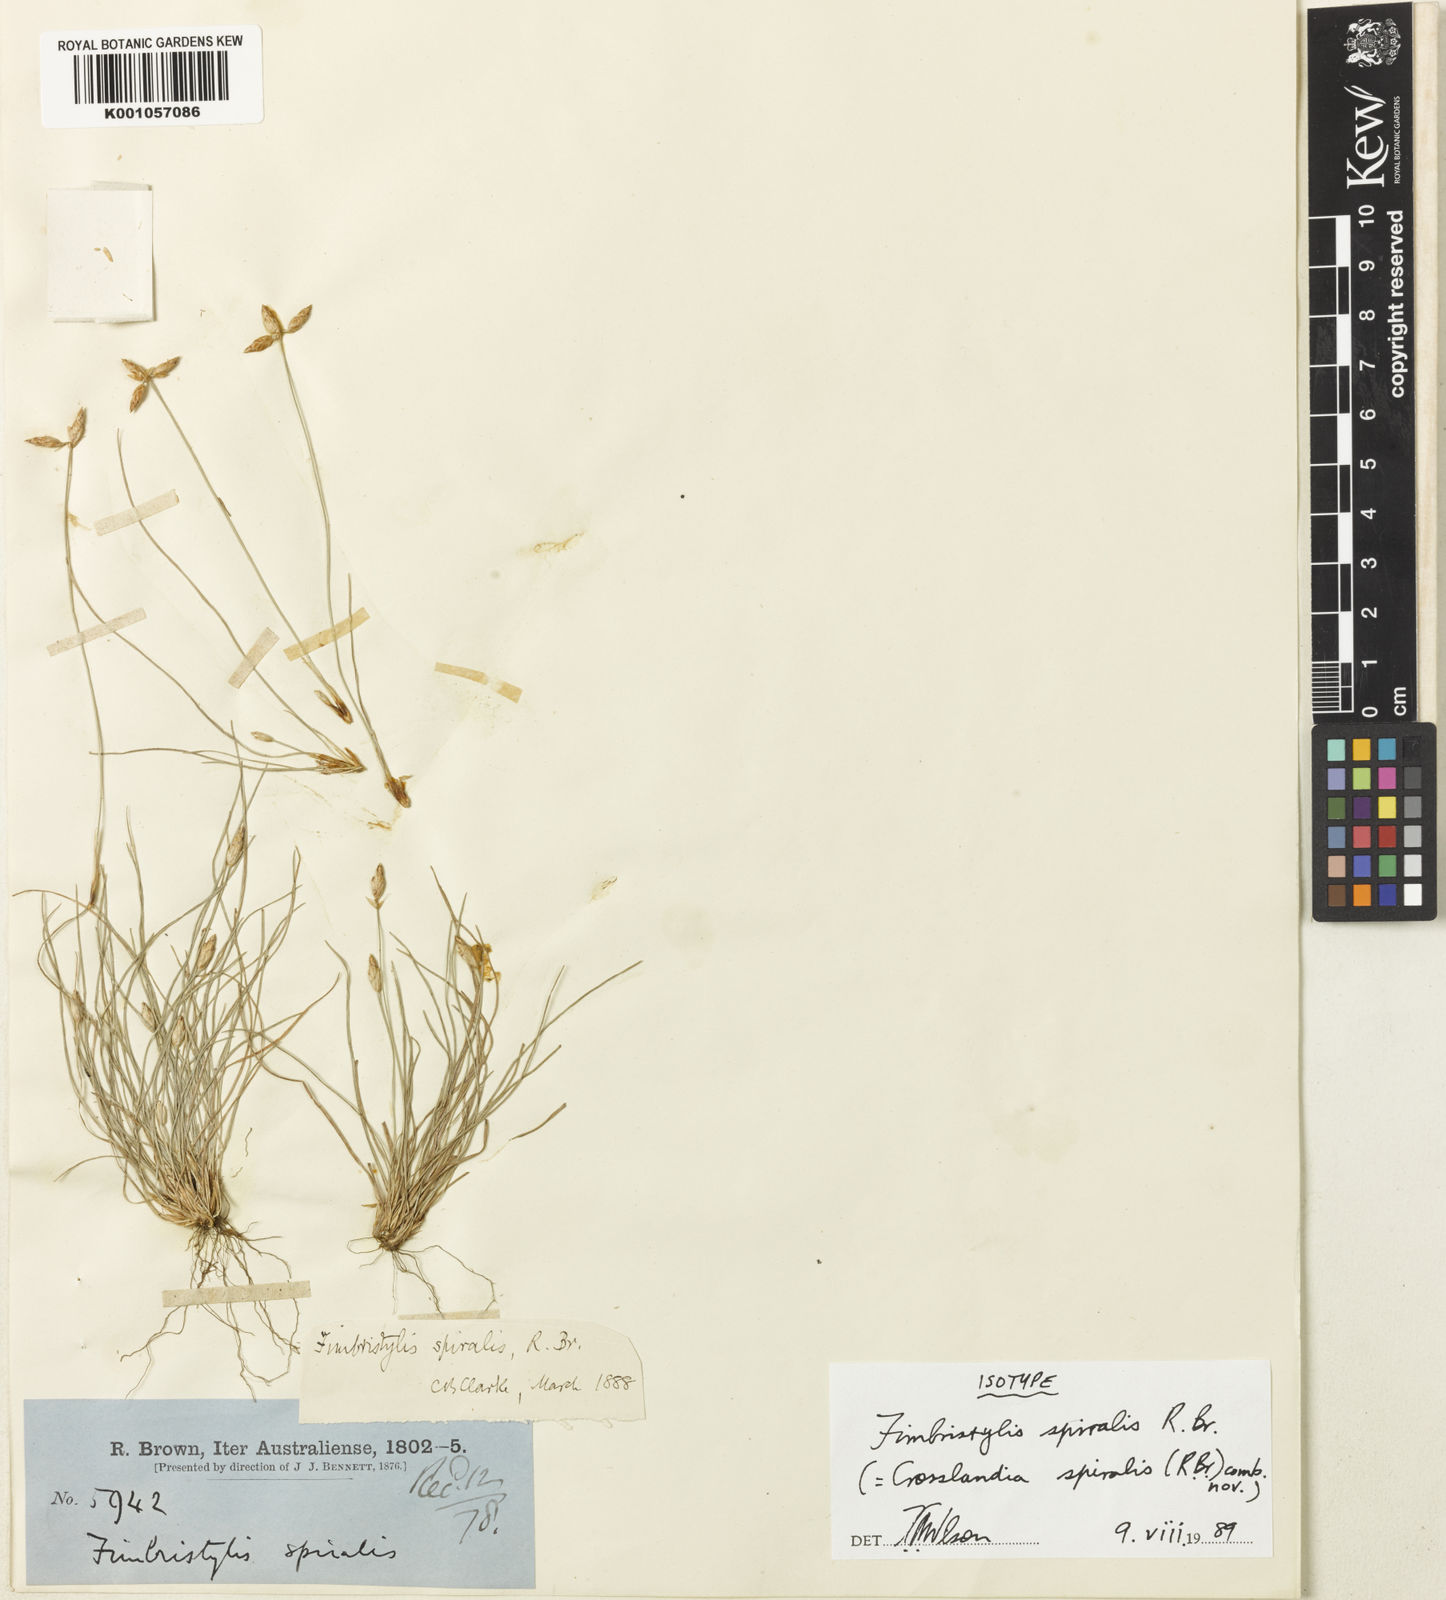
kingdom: Animalia
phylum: Mollusca
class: Gastropoda
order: Nudibranchia
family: Scyllaeidae
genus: Crosslandia
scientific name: Crosslandia
